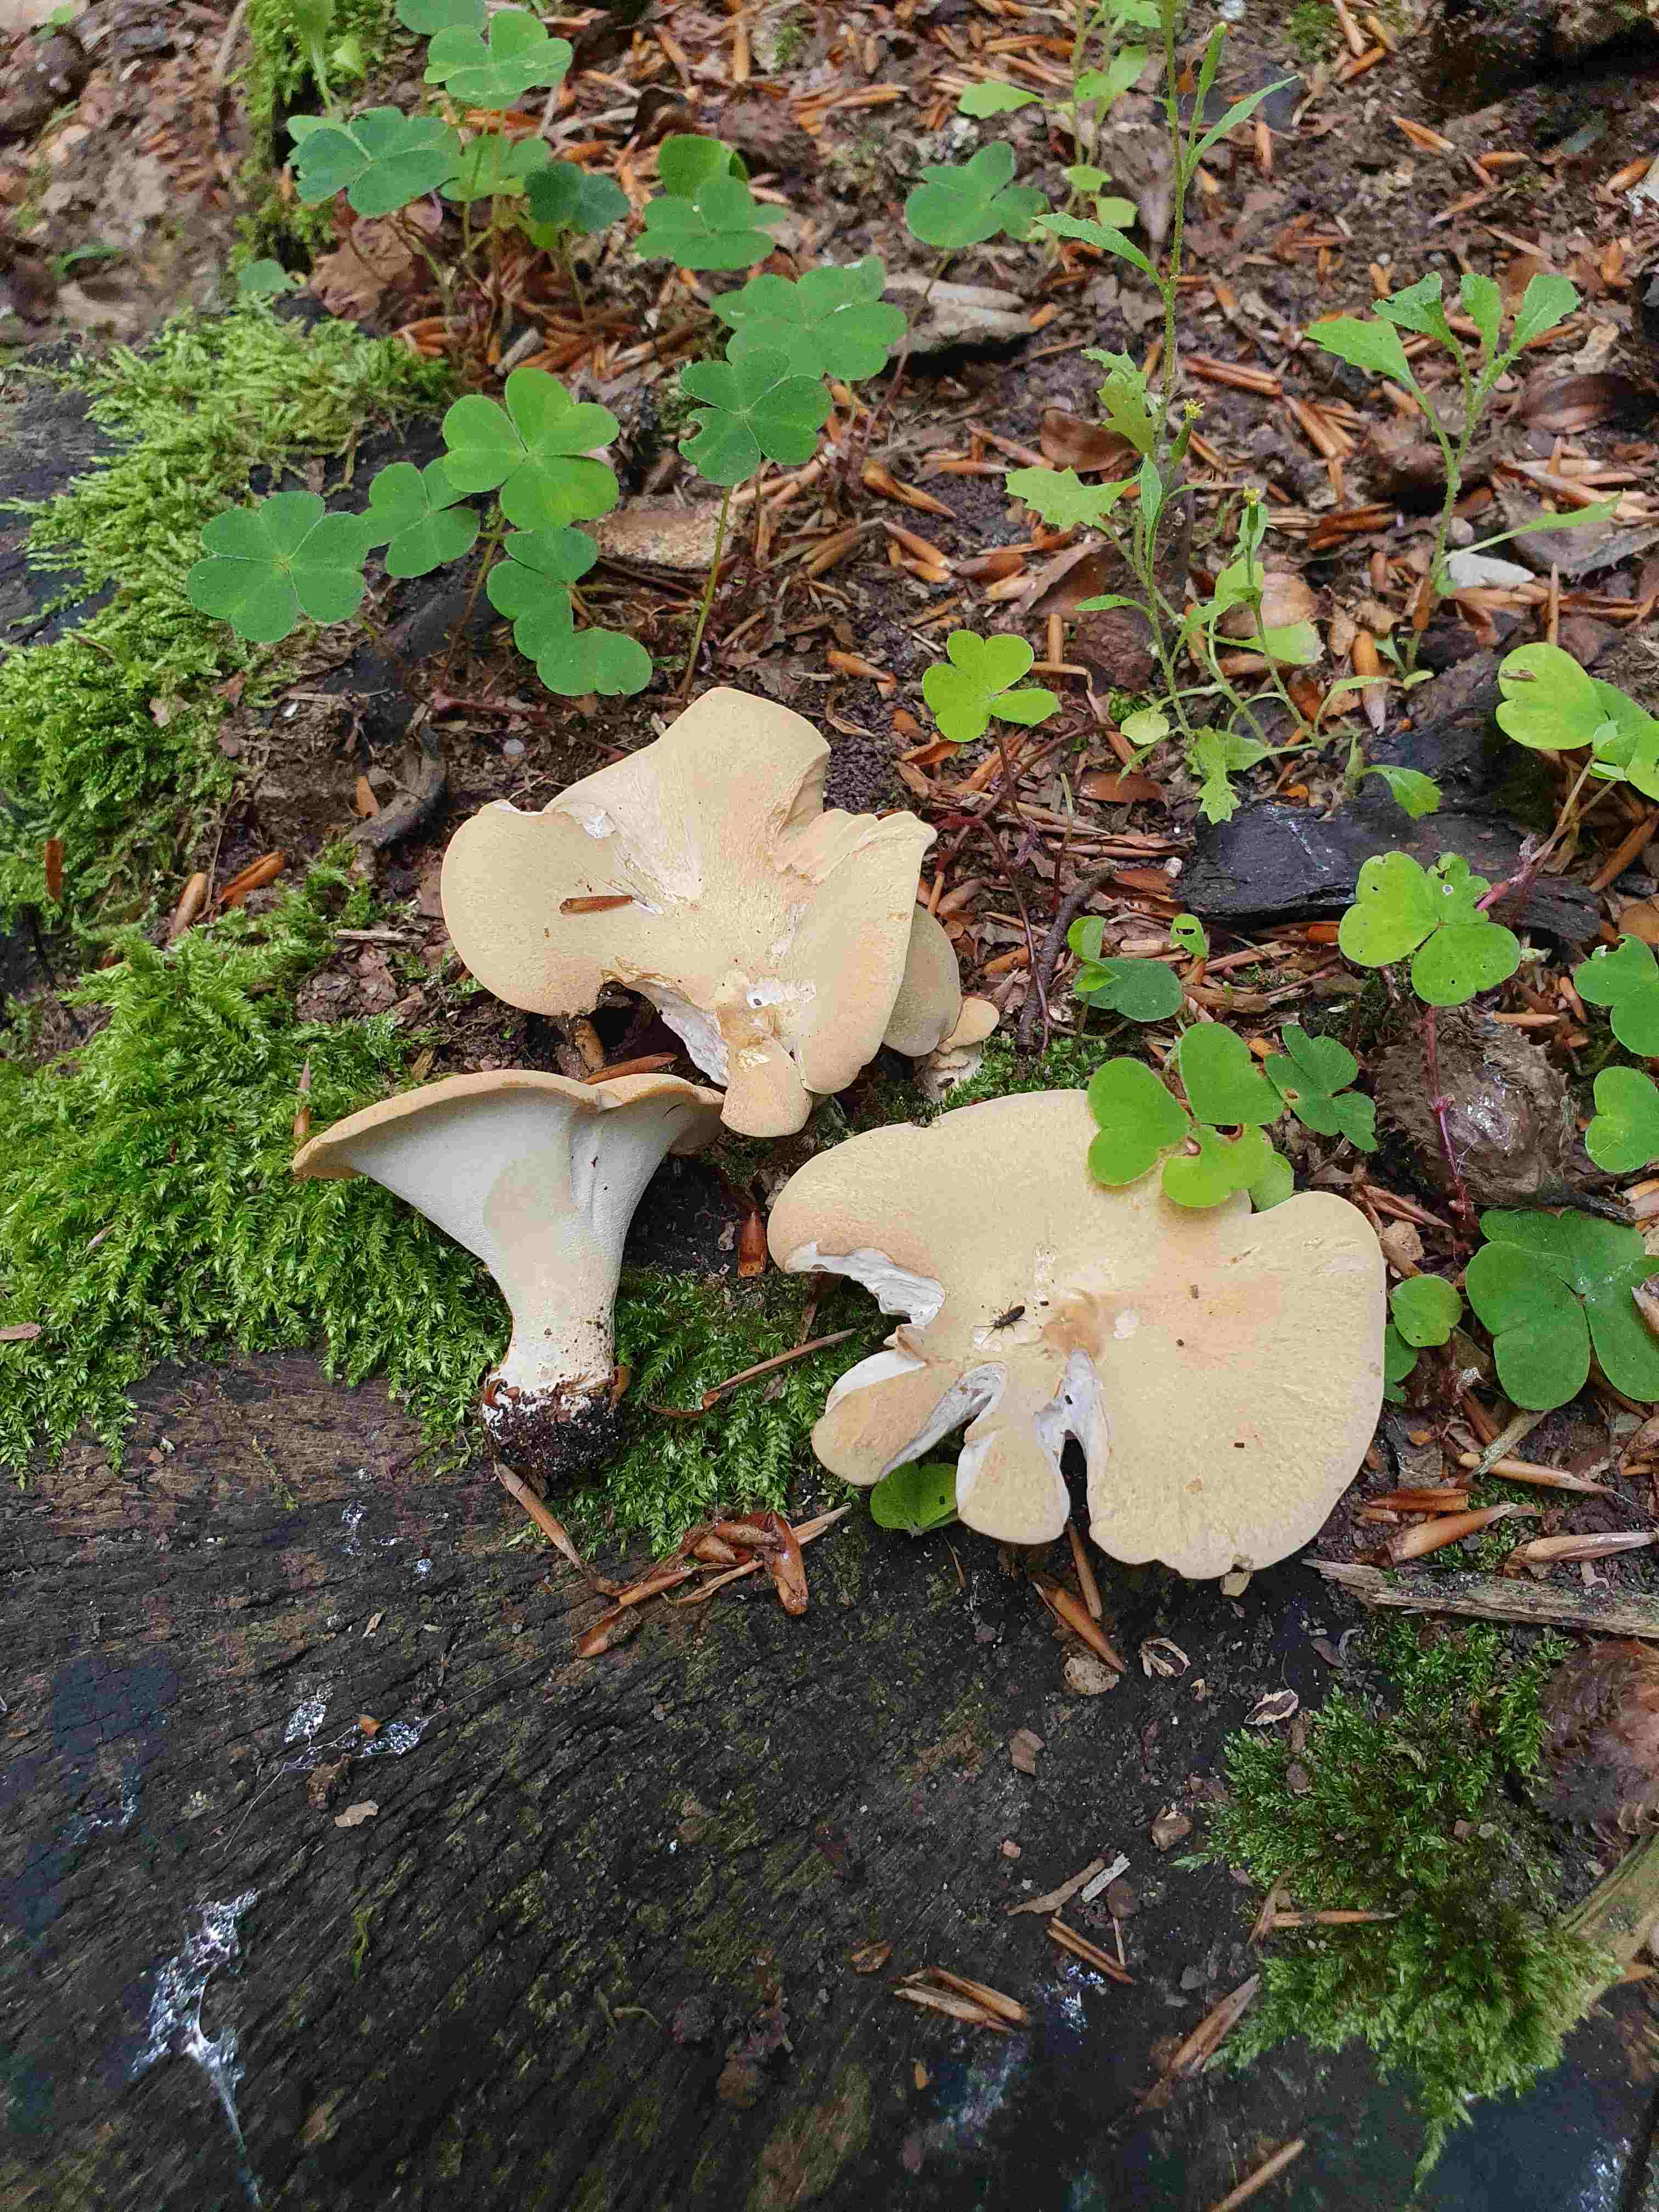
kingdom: Fungi
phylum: Basidiomycota
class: Agaricomycetes
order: Polyporales
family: Polyporaceae
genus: Cerioporus
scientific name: Cerioporus varius
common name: foranderlig stilkporesvamp
